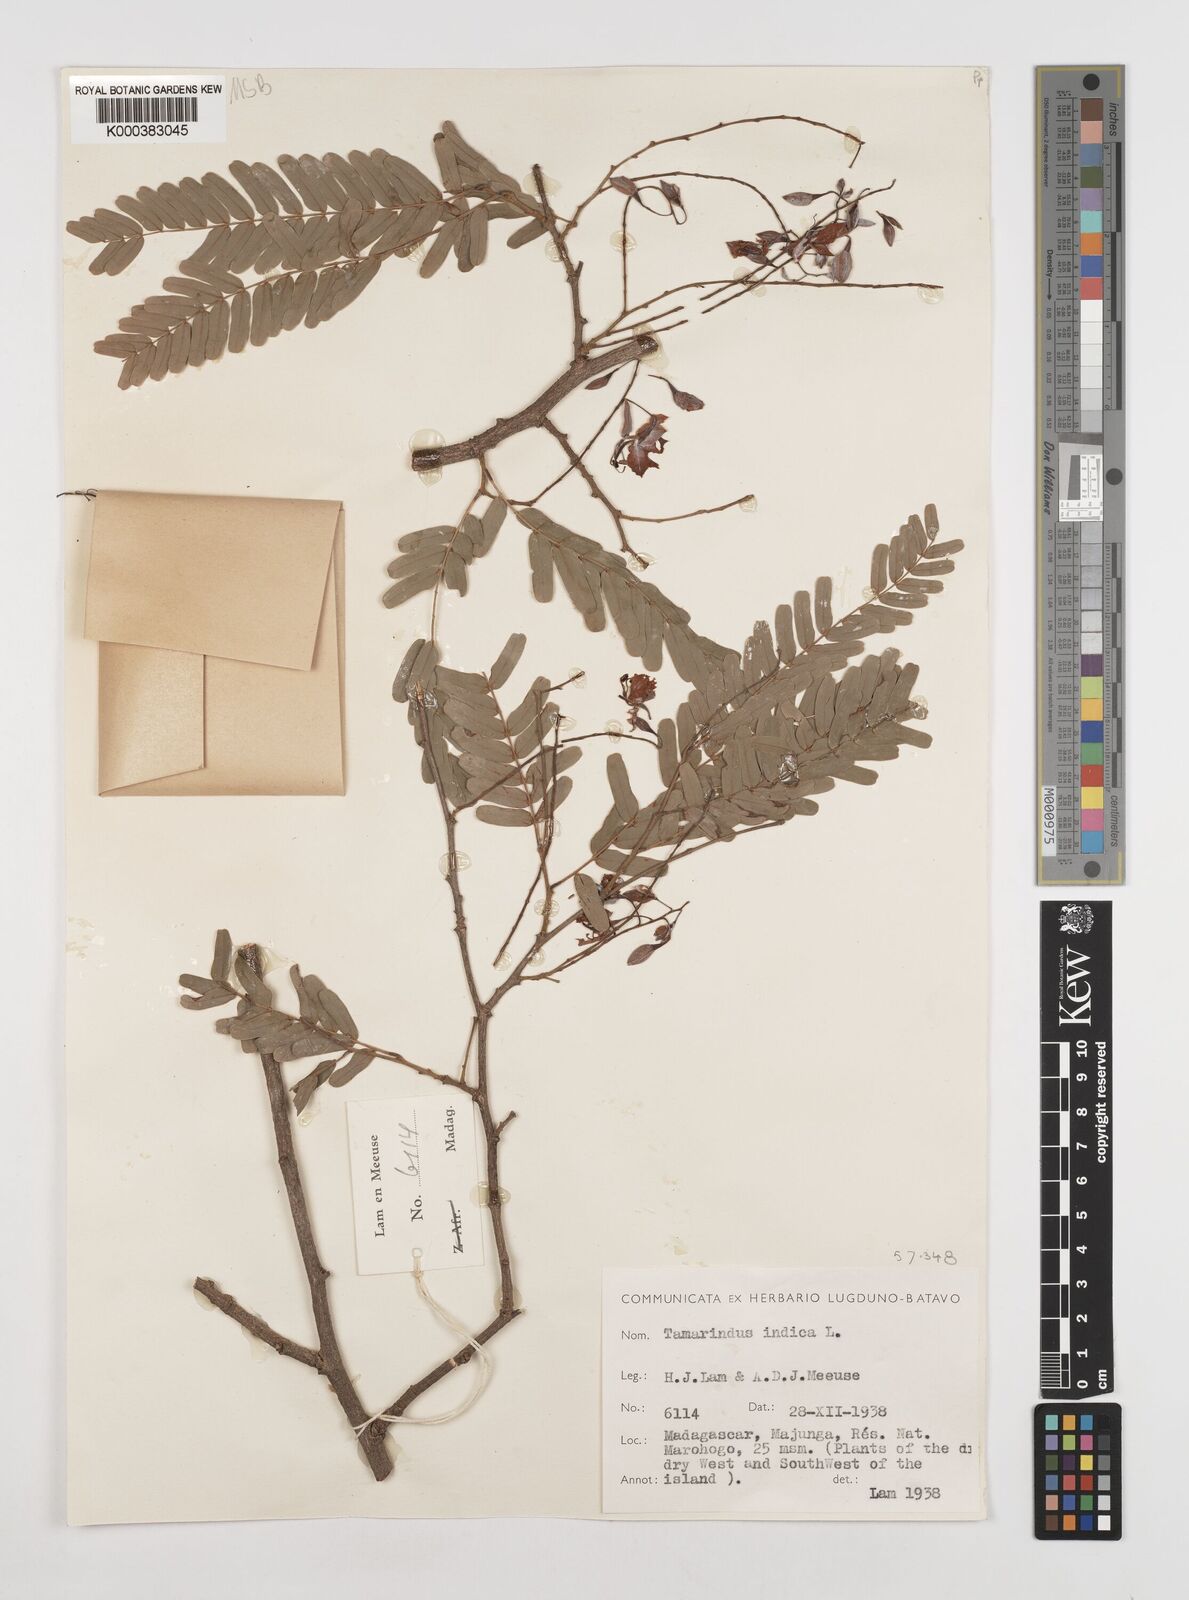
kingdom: Plantae
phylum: Tracheophyta
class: Magnoliopsida
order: Fabales
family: Fabaceae
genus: Tamarindus
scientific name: Tamarindus indica
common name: Tamarind
